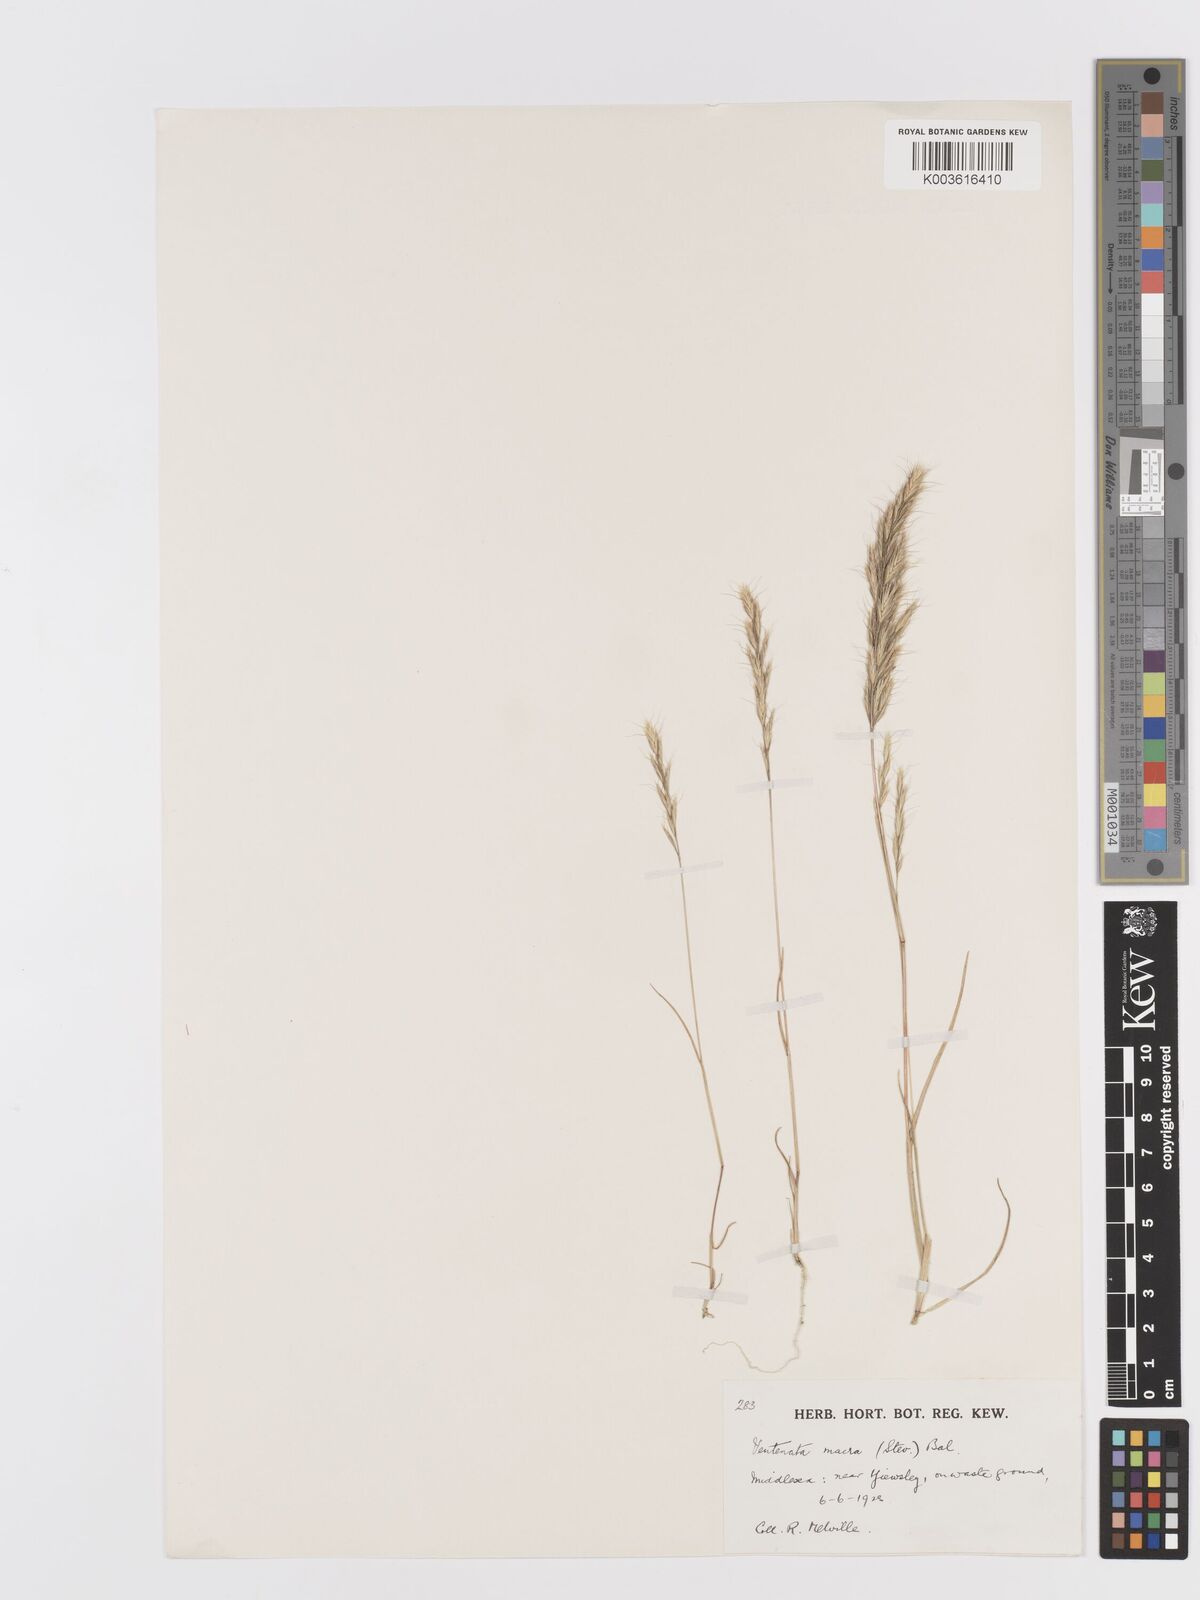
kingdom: Plantae
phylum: Tracheophyta
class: Liliopsida
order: Poales
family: Poaceae
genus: Ventenata
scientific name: Ventenata macra
